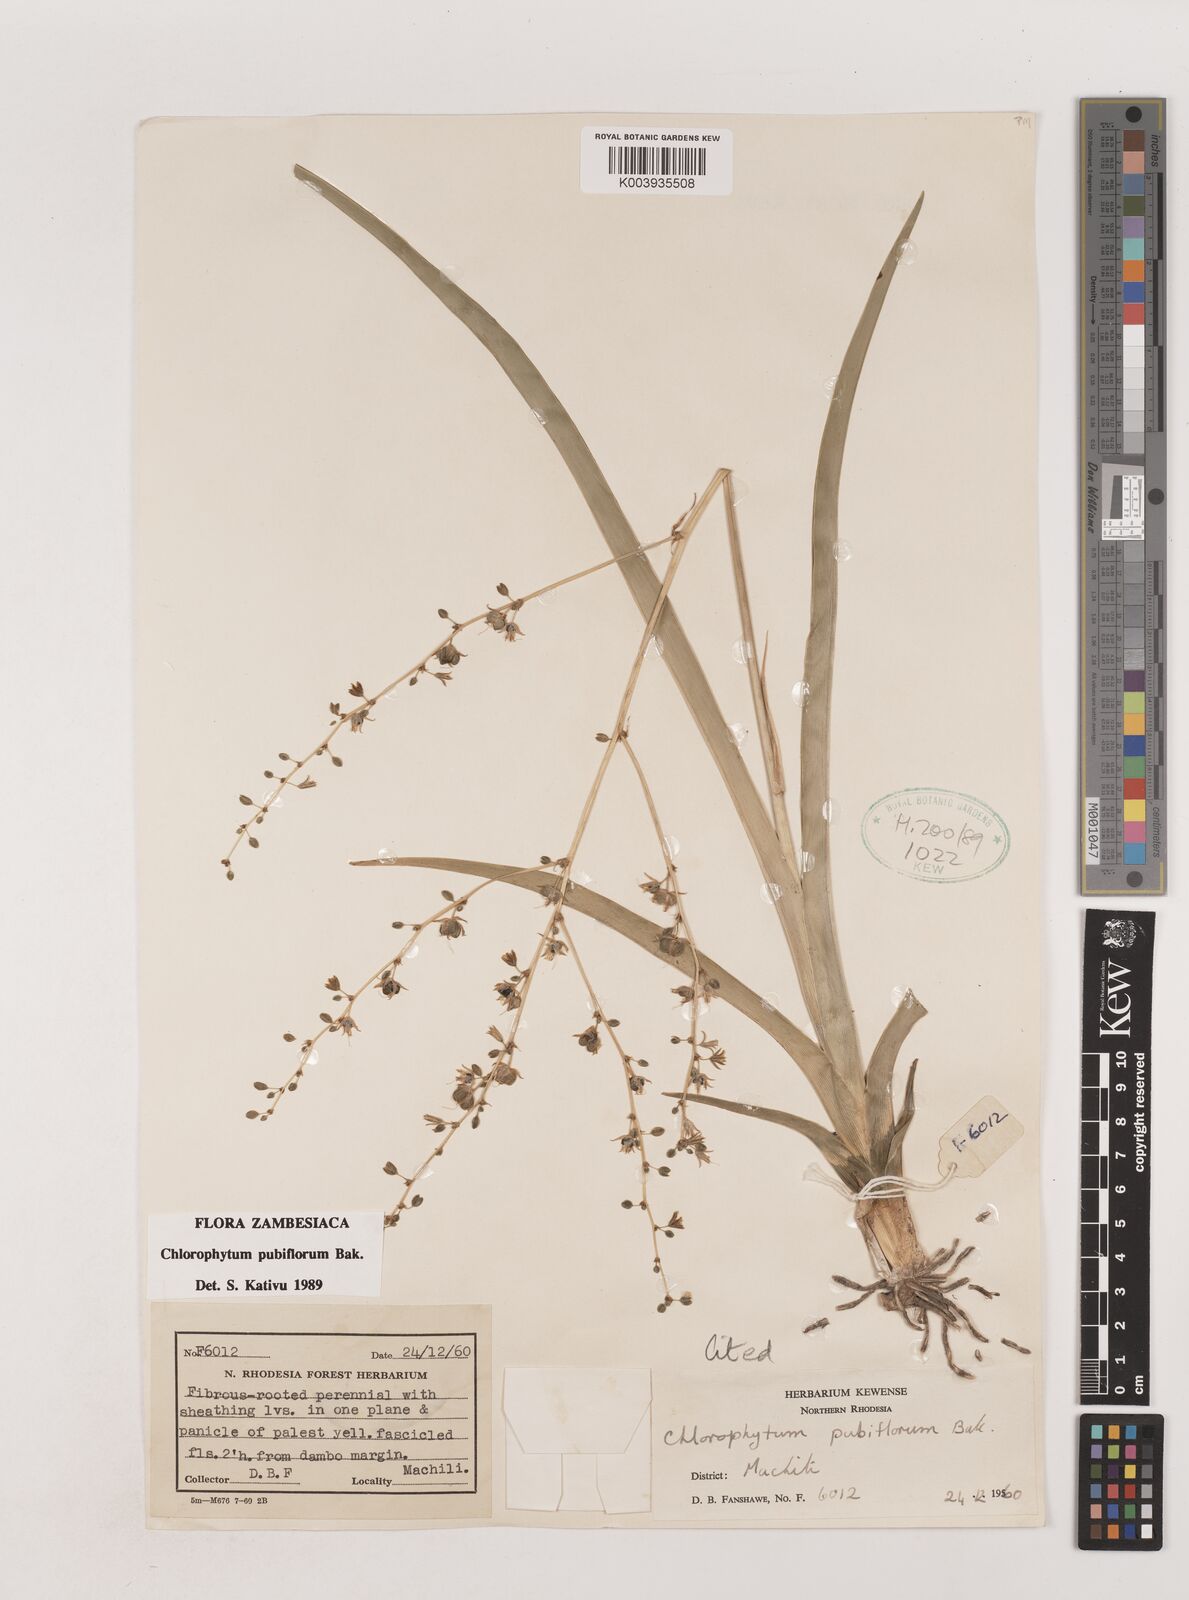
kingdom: Plantae
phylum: Tracheophyta
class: Liliopsida
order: Asparagales
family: Asparagaceae
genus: Chlorophytum
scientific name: Chlorophytum pubiflorum
